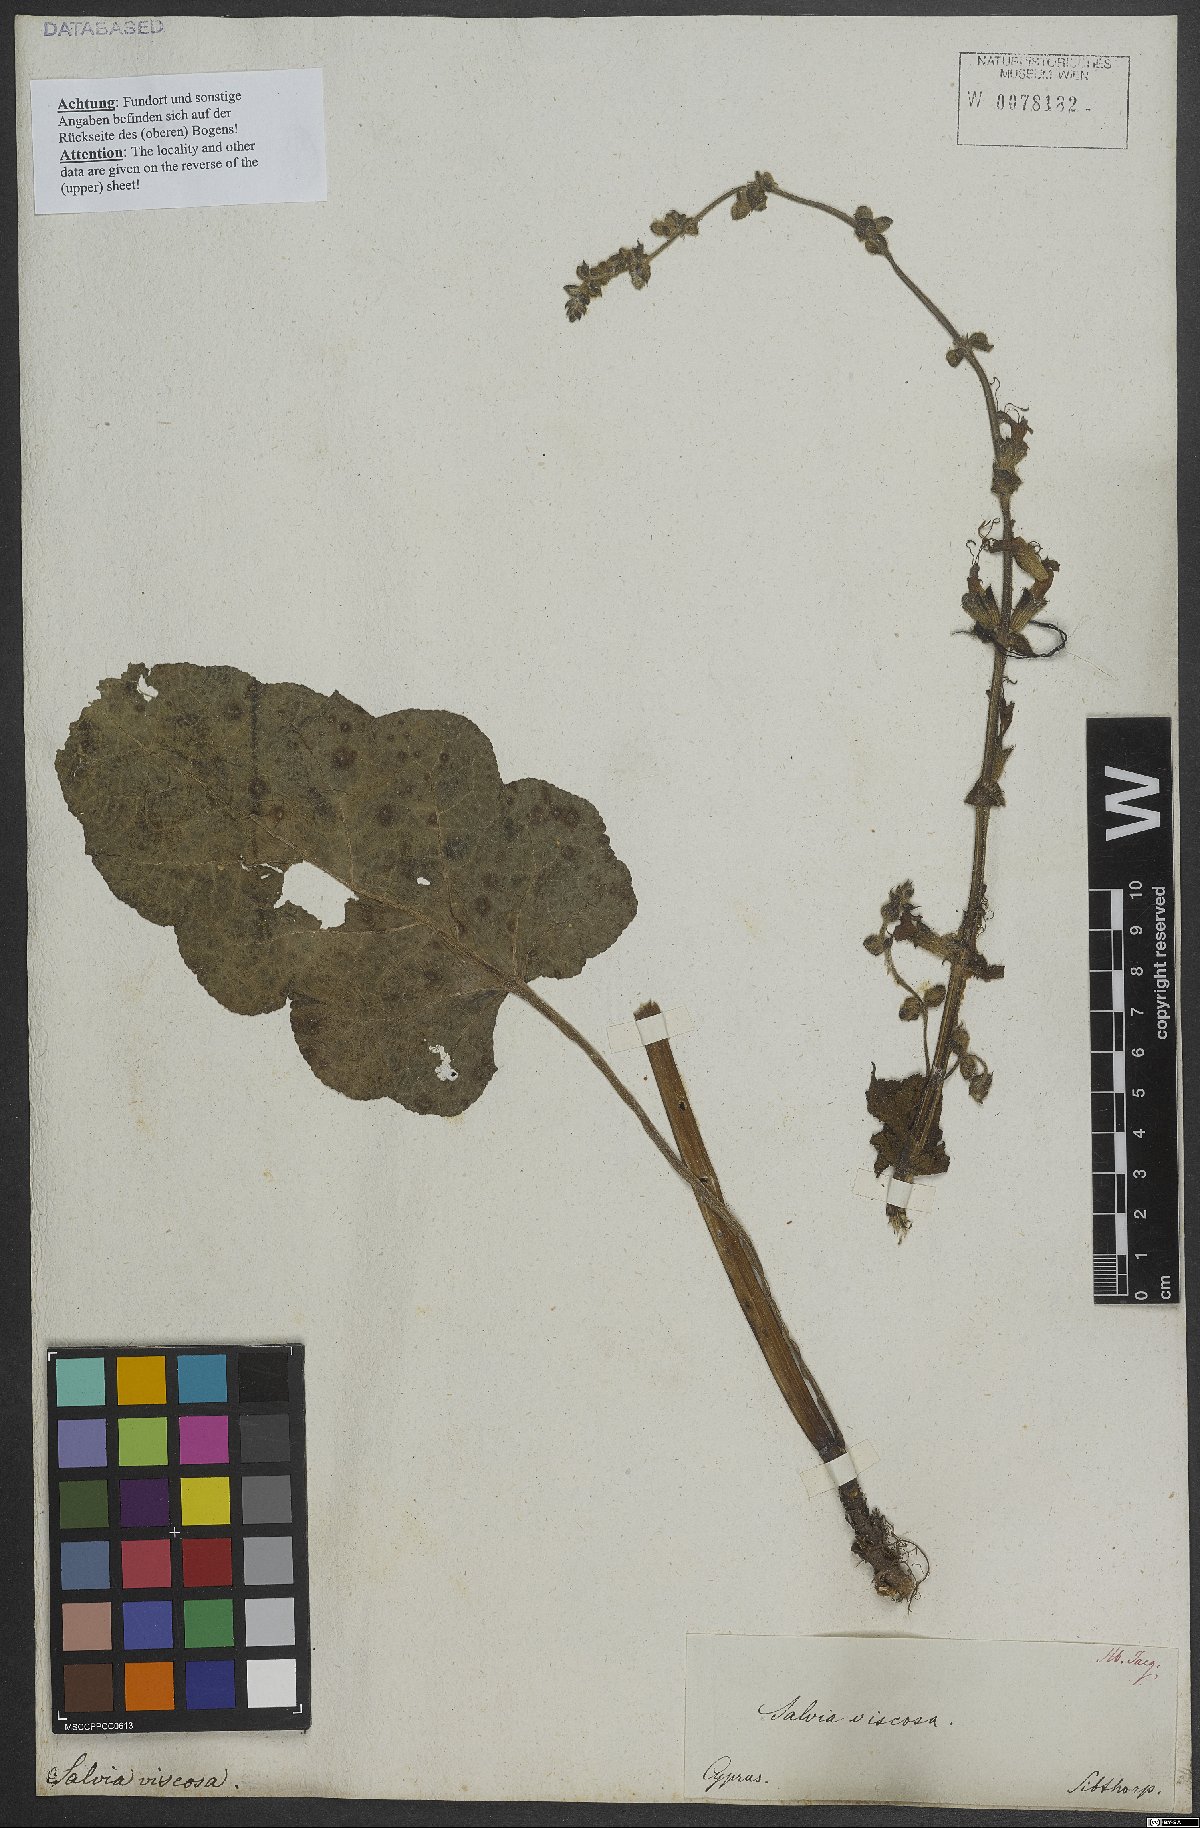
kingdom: Plantae
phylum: Tracheophyta
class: Magnoliopsida
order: Lamiales
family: Lamiaceae
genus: Salvia
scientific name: Salvia viscosa
